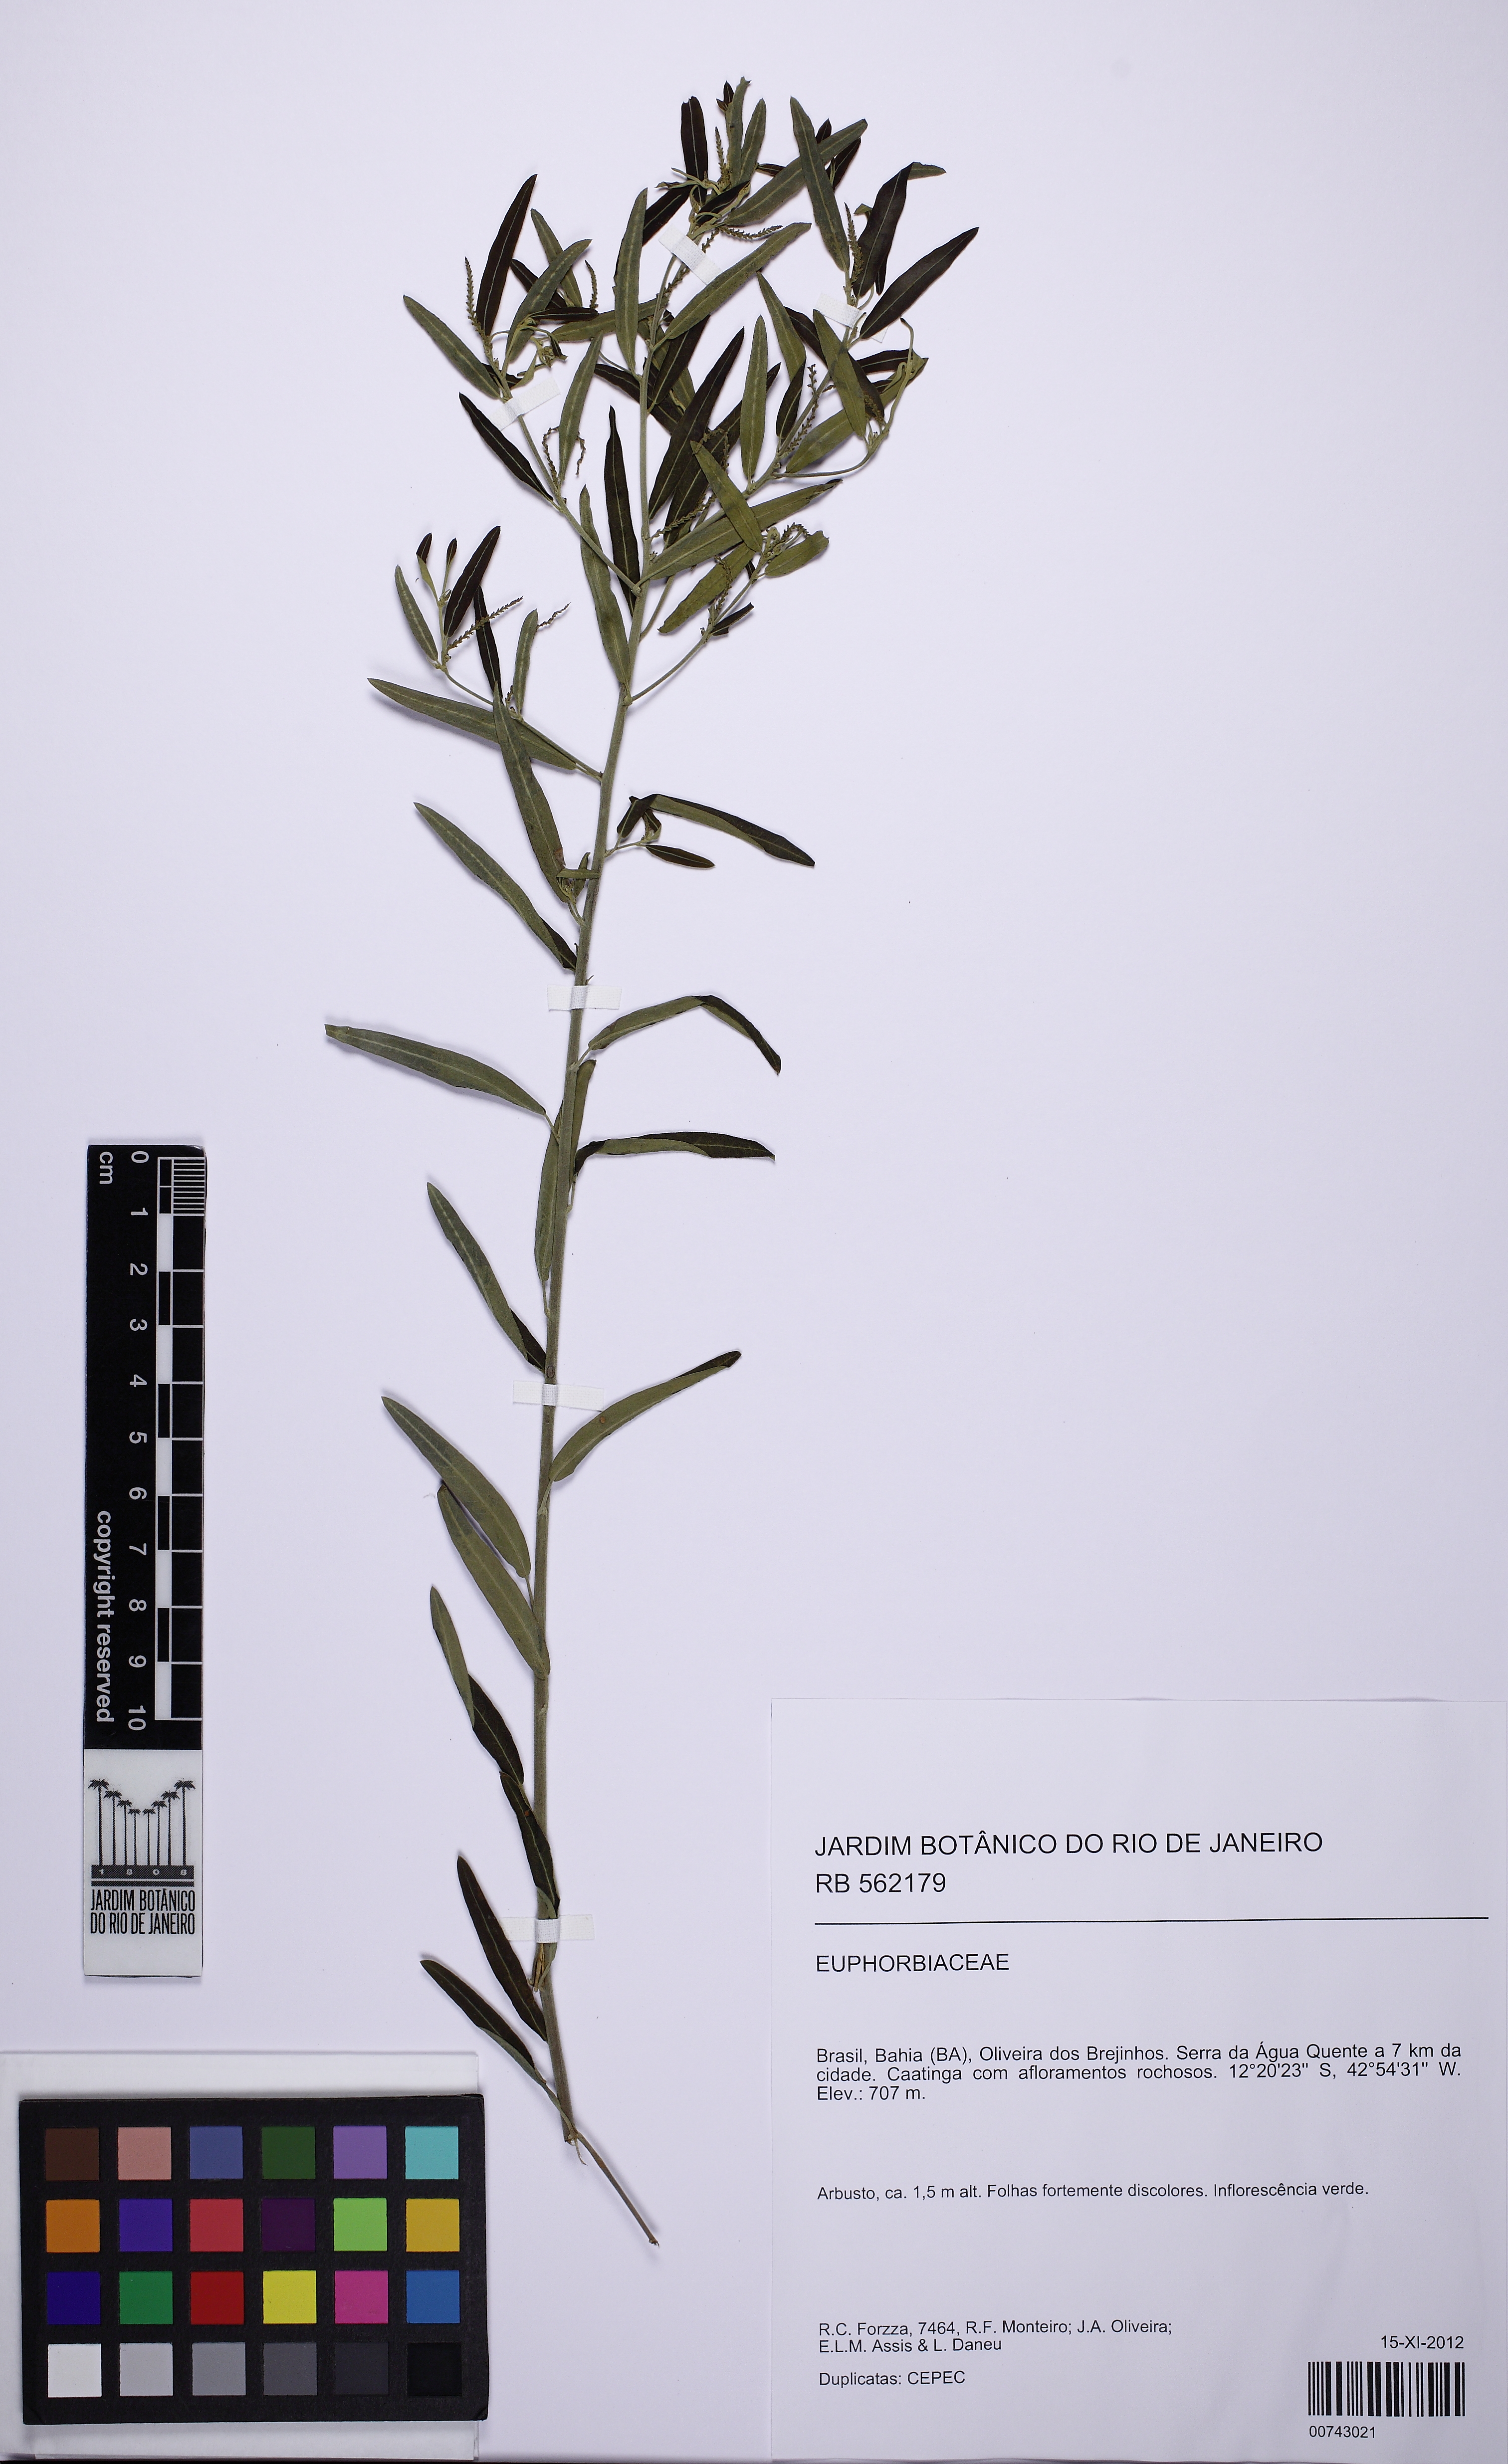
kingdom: Plantae
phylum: Tracheophyta
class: Magnoliopsida
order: Malpighiales
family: Euphorbiaceae
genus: Microstachys
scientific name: Microstachys daphnoides
